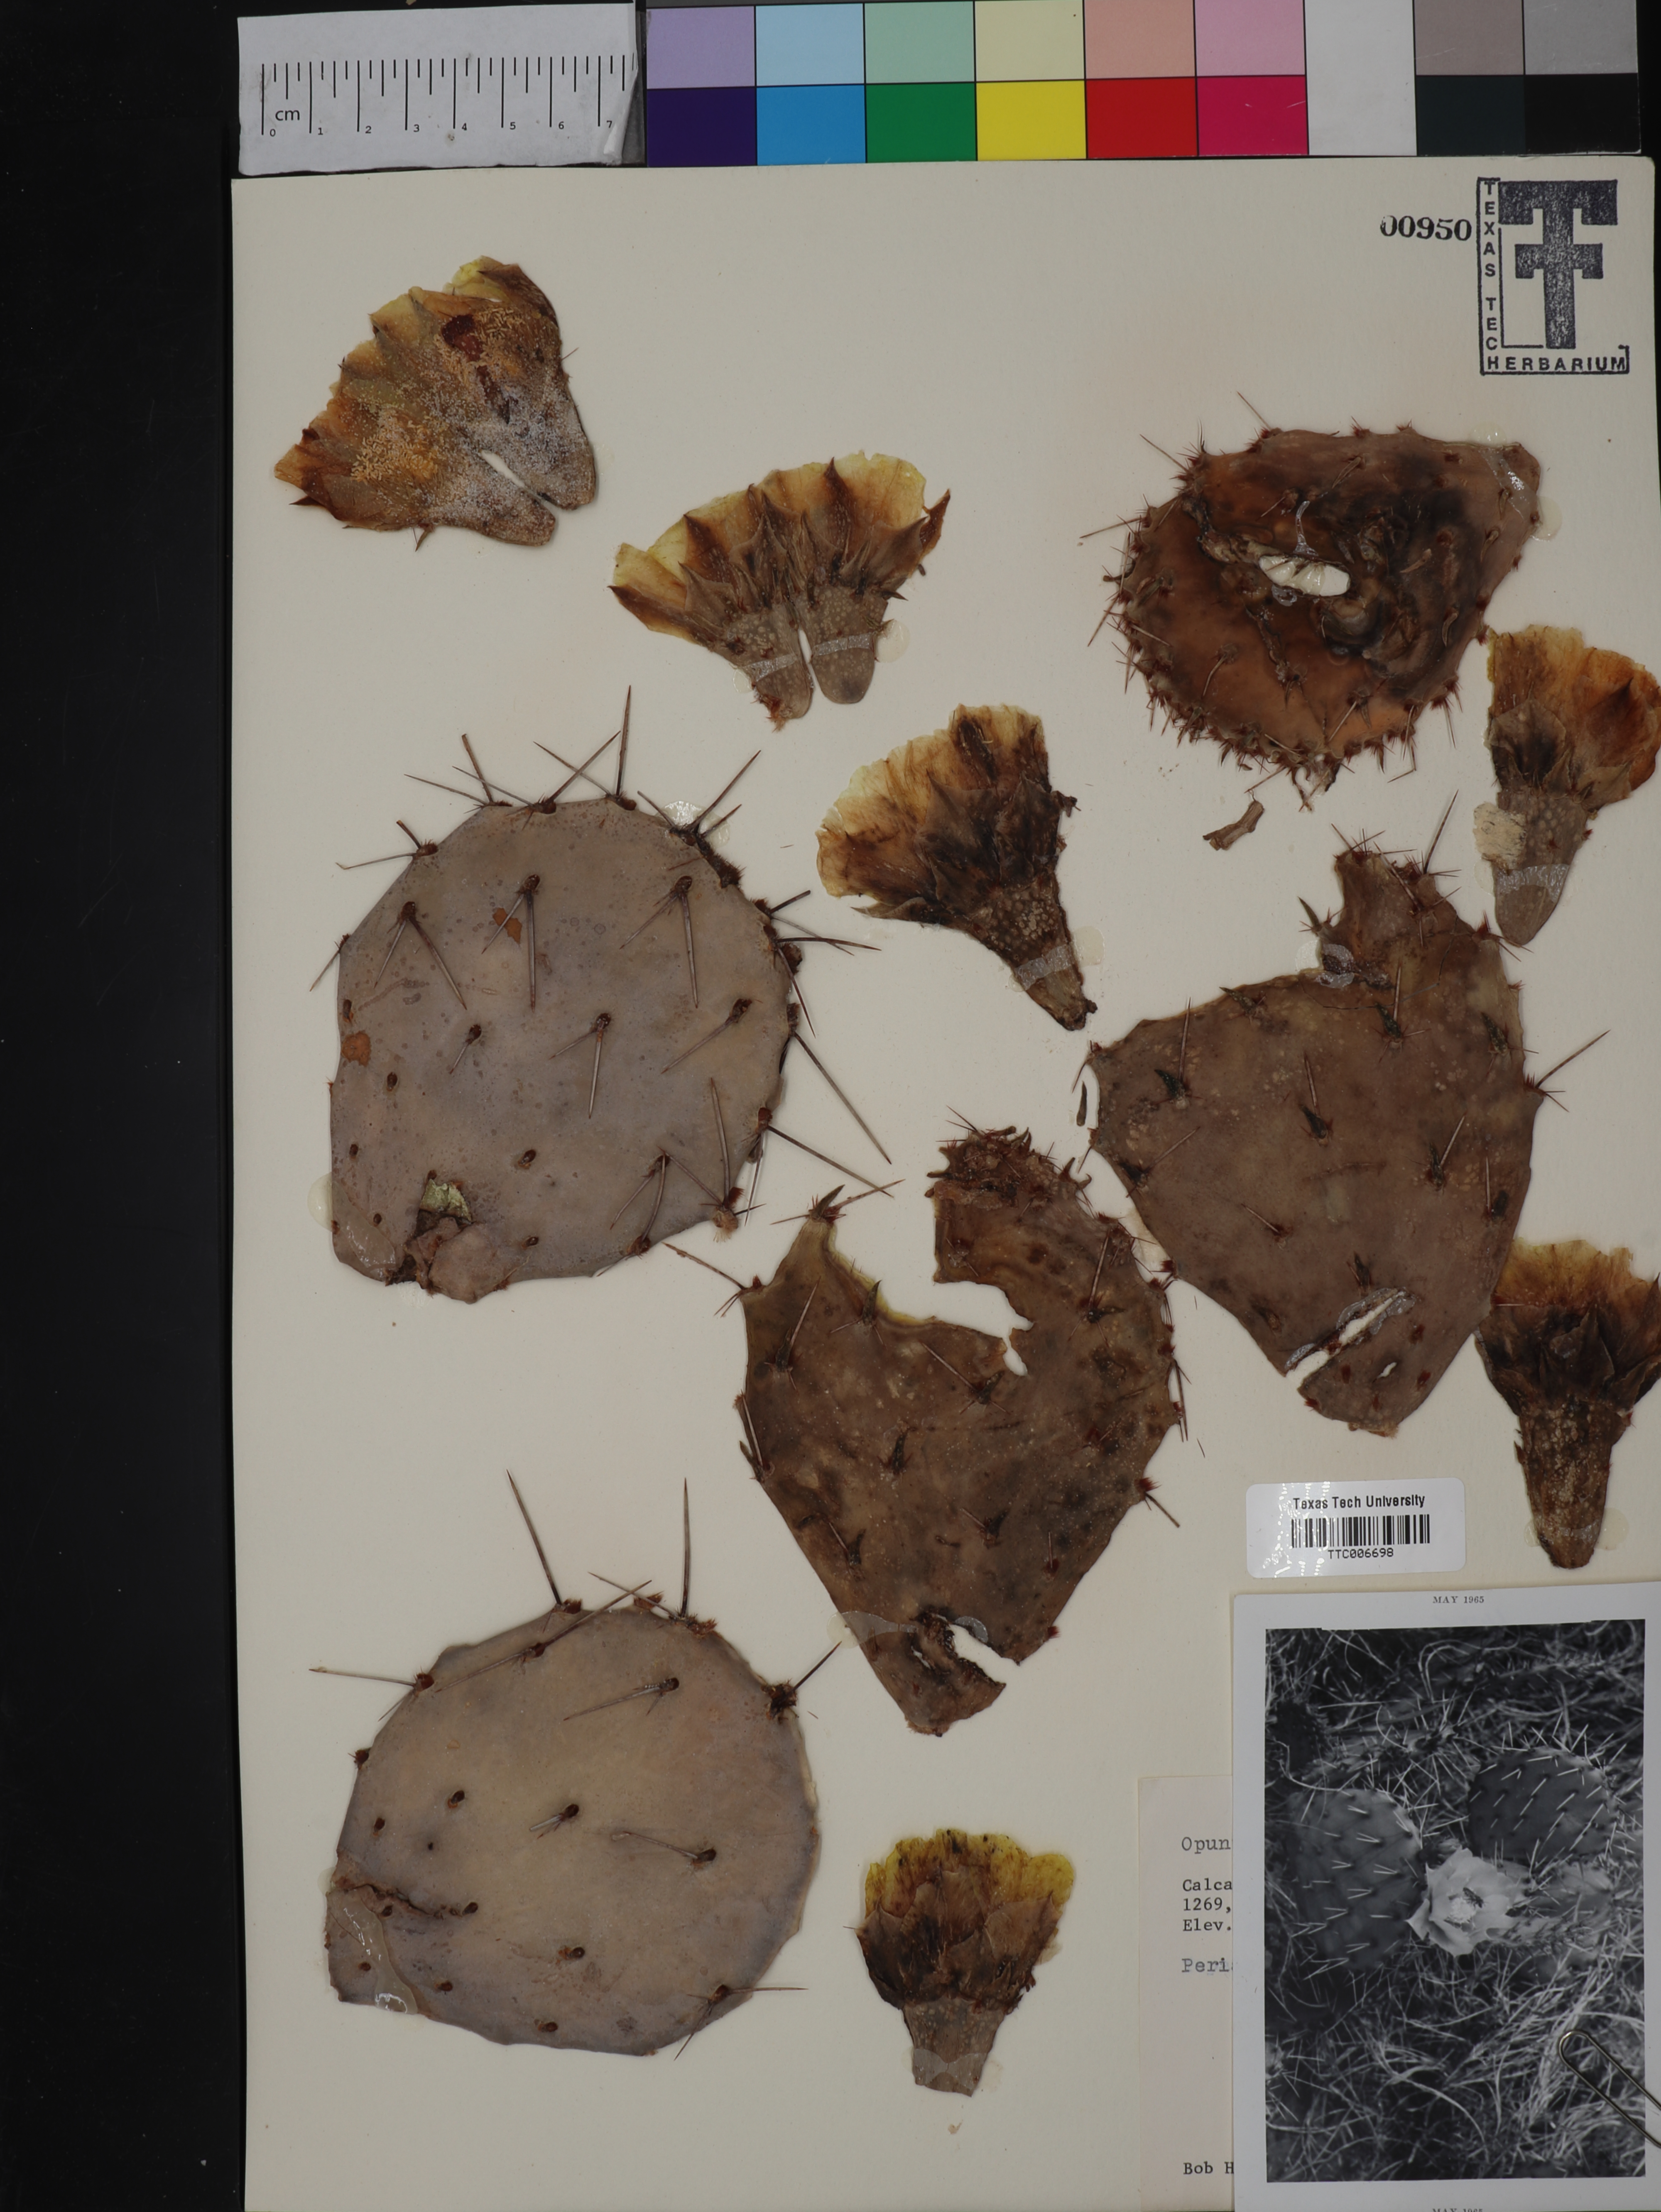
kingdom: Plantae
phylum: Tracheophyta
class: Magnoliopsida
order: Caryophyllales
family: Cactaceae
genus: Opuntia
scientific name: Opuntia macrorhiza
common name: Grassland pricklypear
